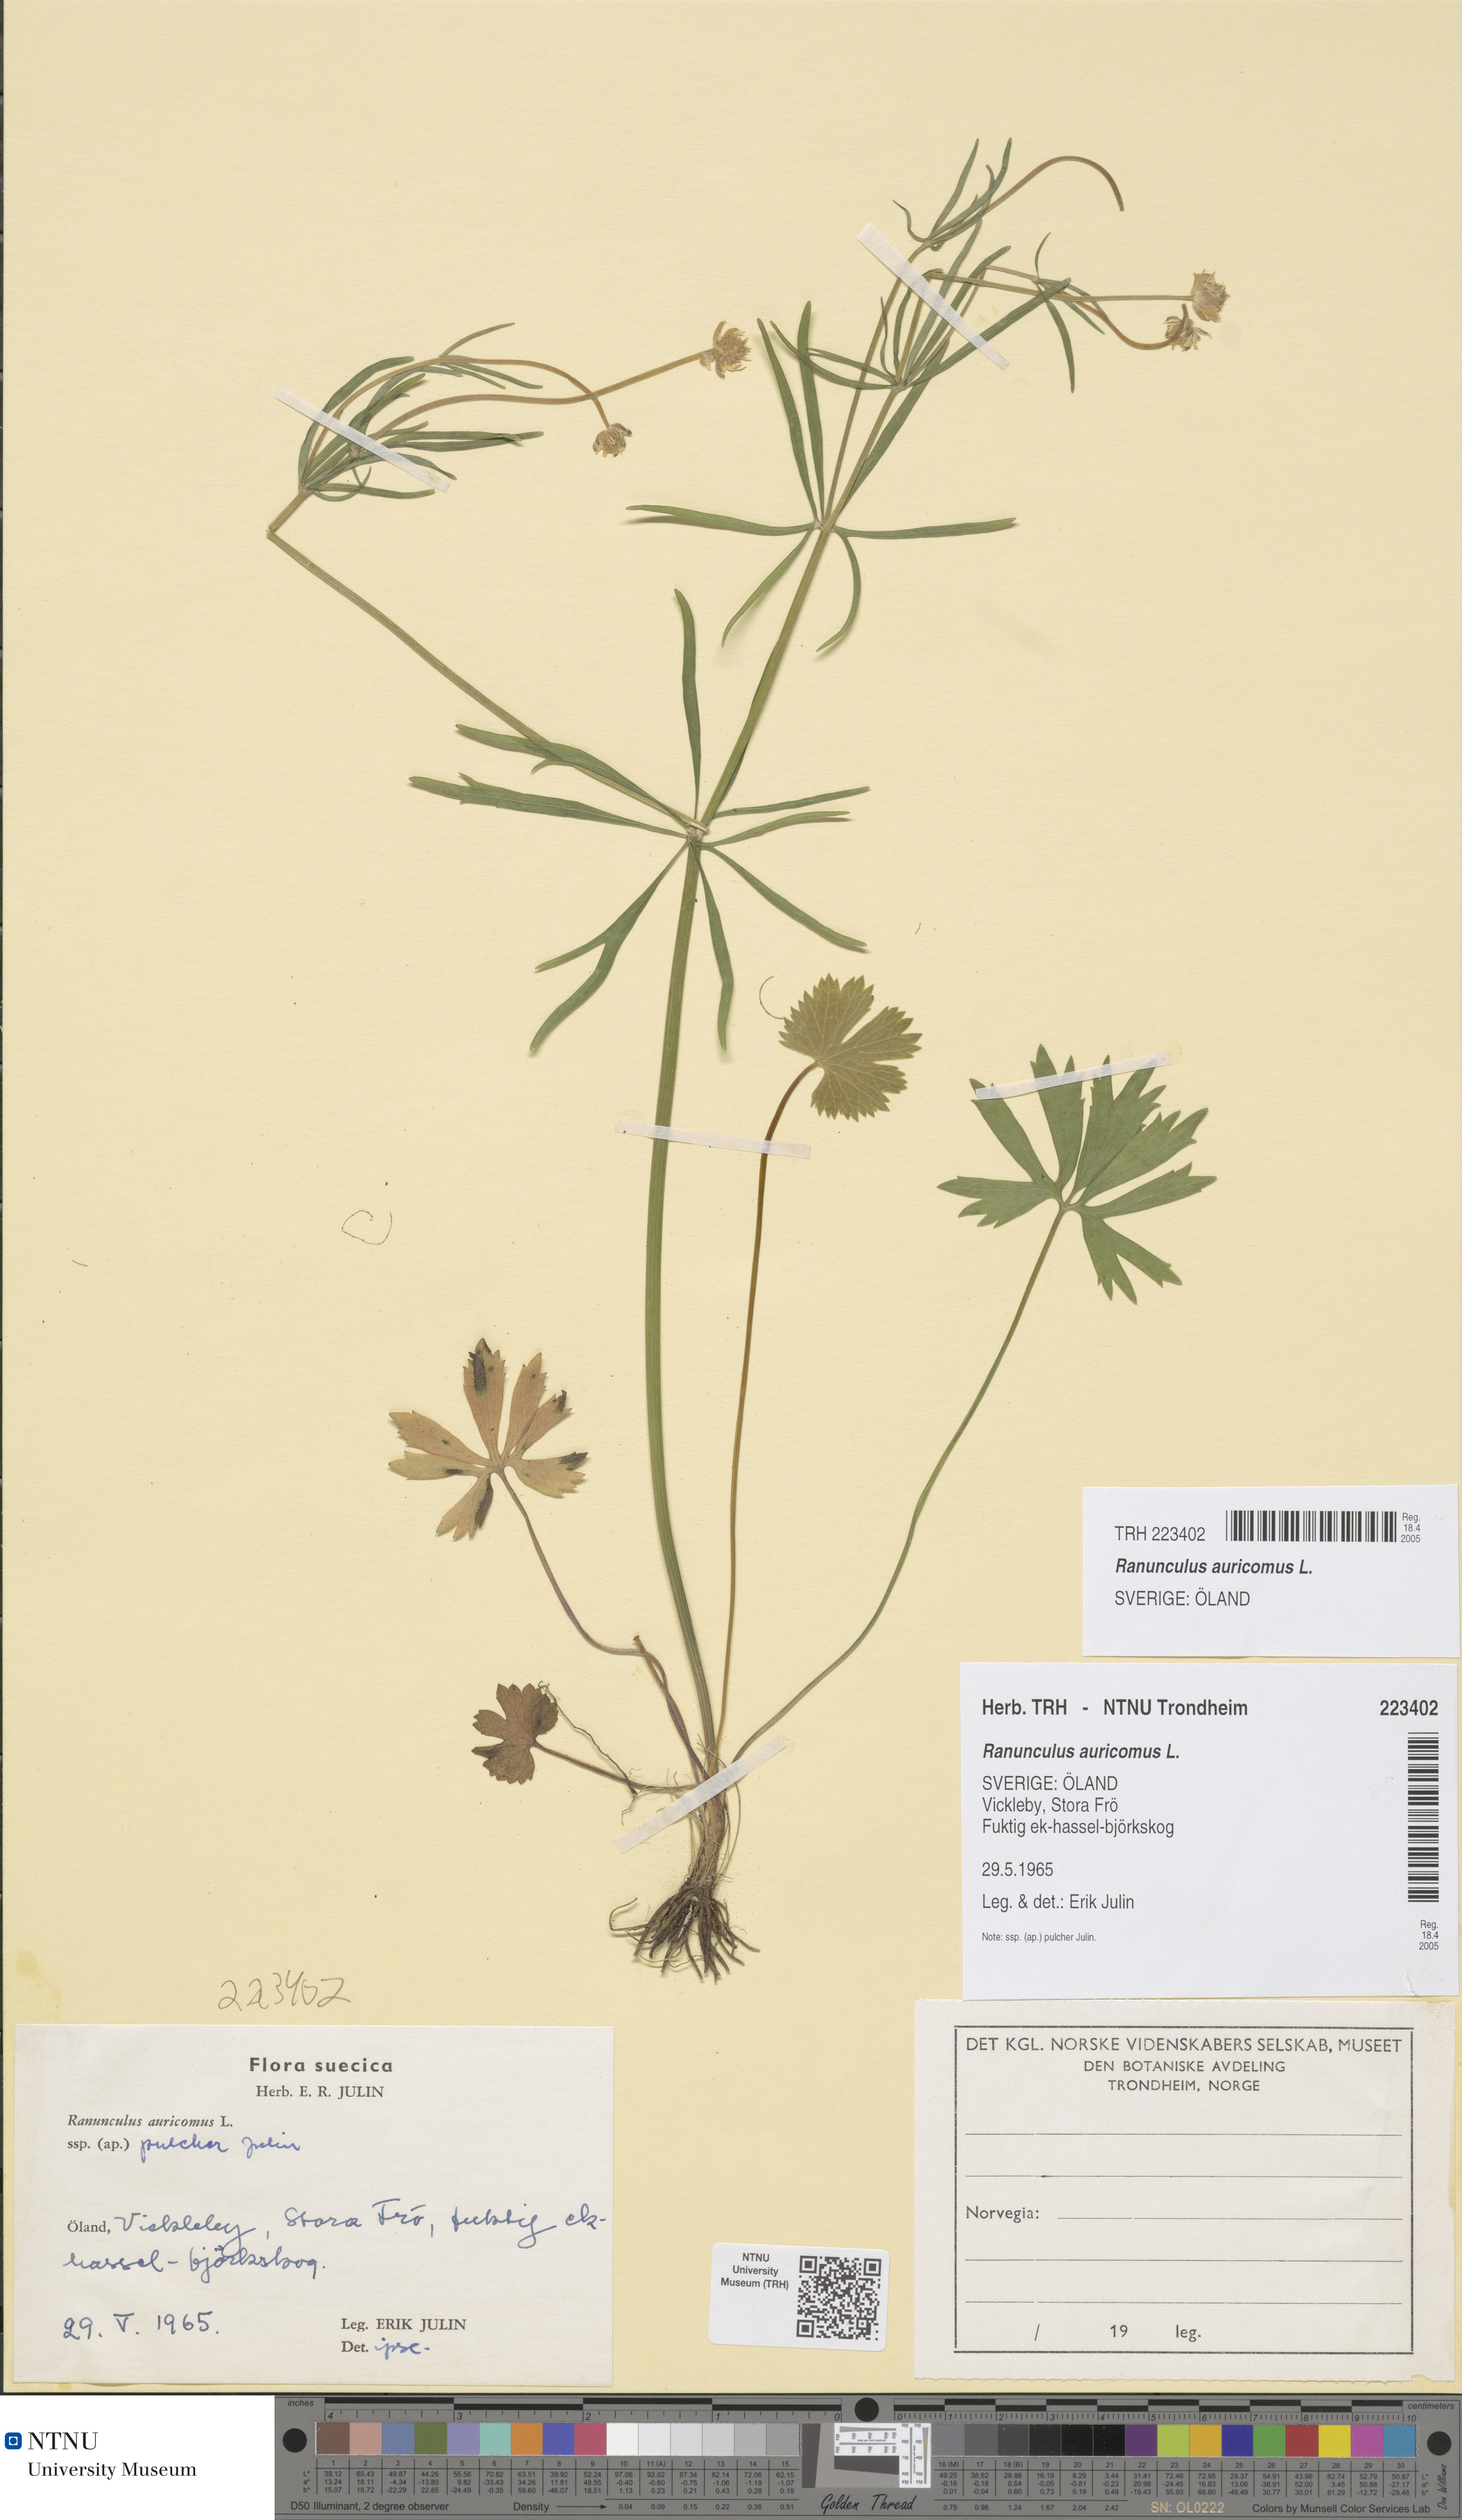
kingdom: Plantae
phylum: Tracheophyta
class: Magnoliopsida
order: Ranunculales
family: Ranunculaceae
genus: Ranunculus
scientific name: Ranunculus auricomus
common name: Goldilocks buttercup
